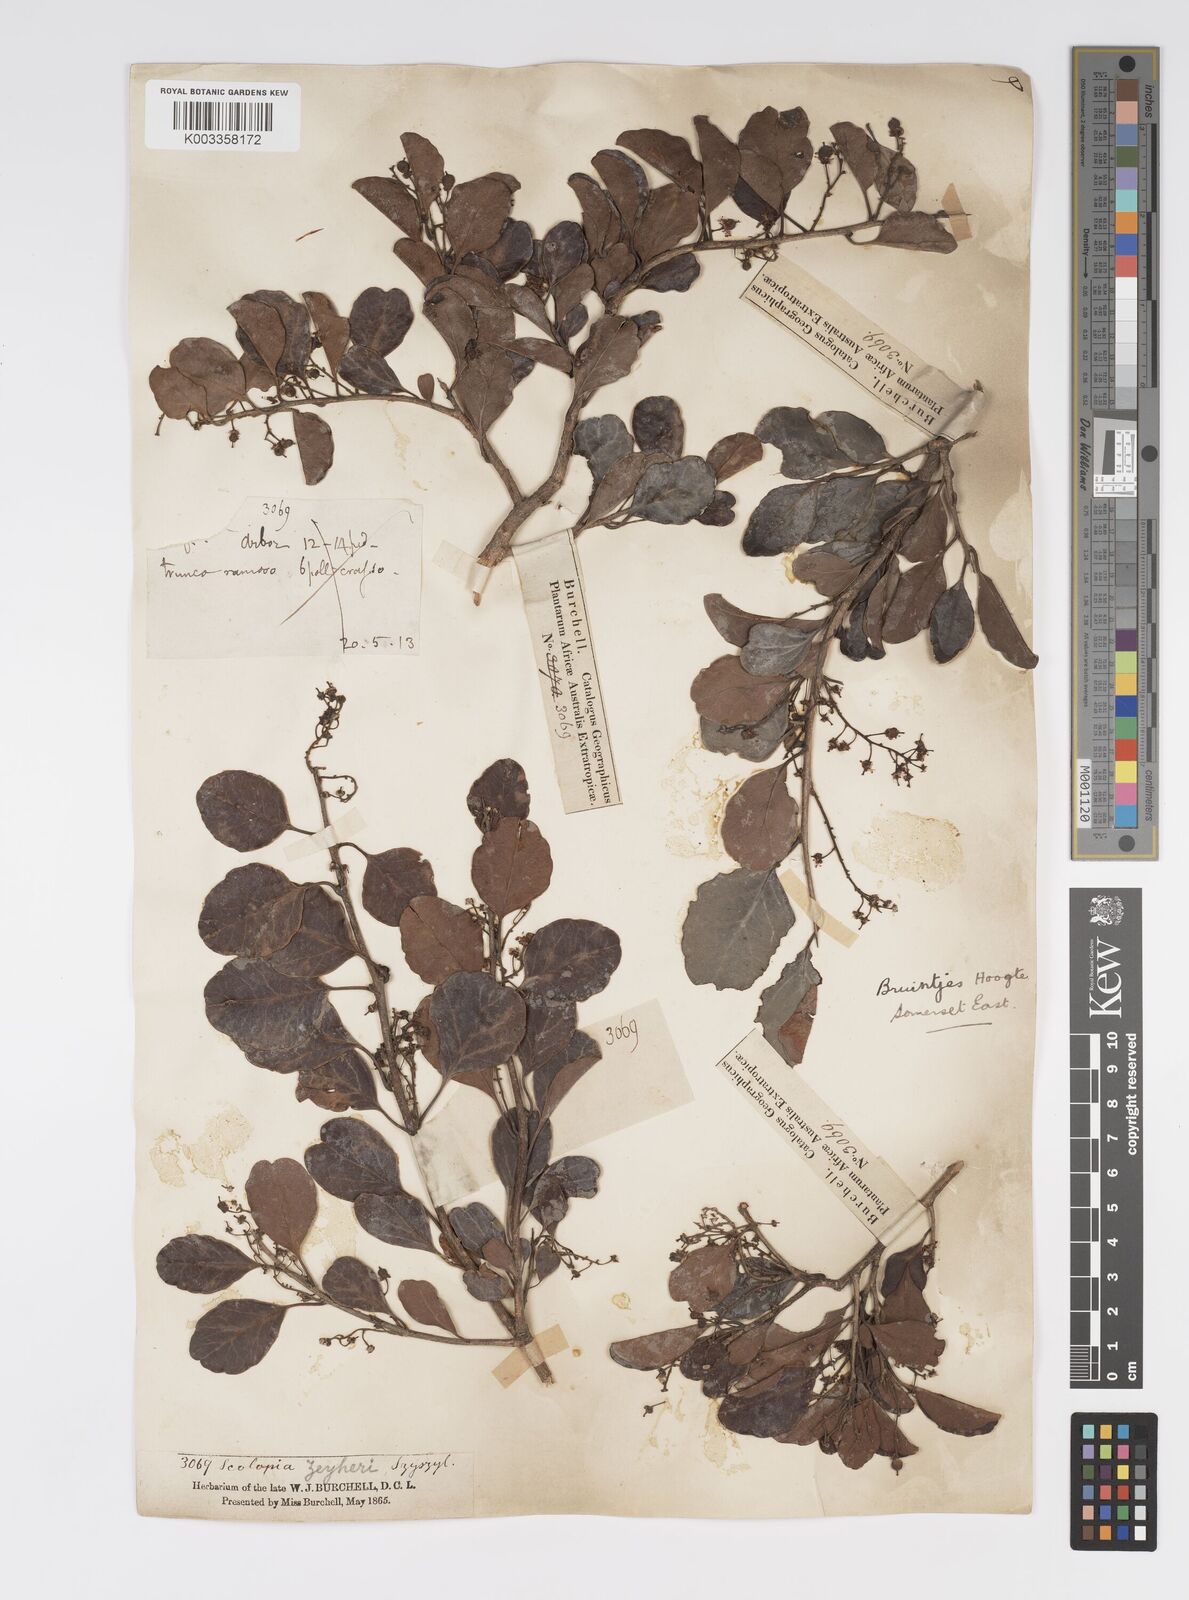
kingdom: Plantae
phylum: Tracheophyta
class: Magnoliopsida
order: Malpighiales
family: Salicaceae
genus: Scolopia
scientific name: Scolopia zeyheri
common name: Thorn pear
